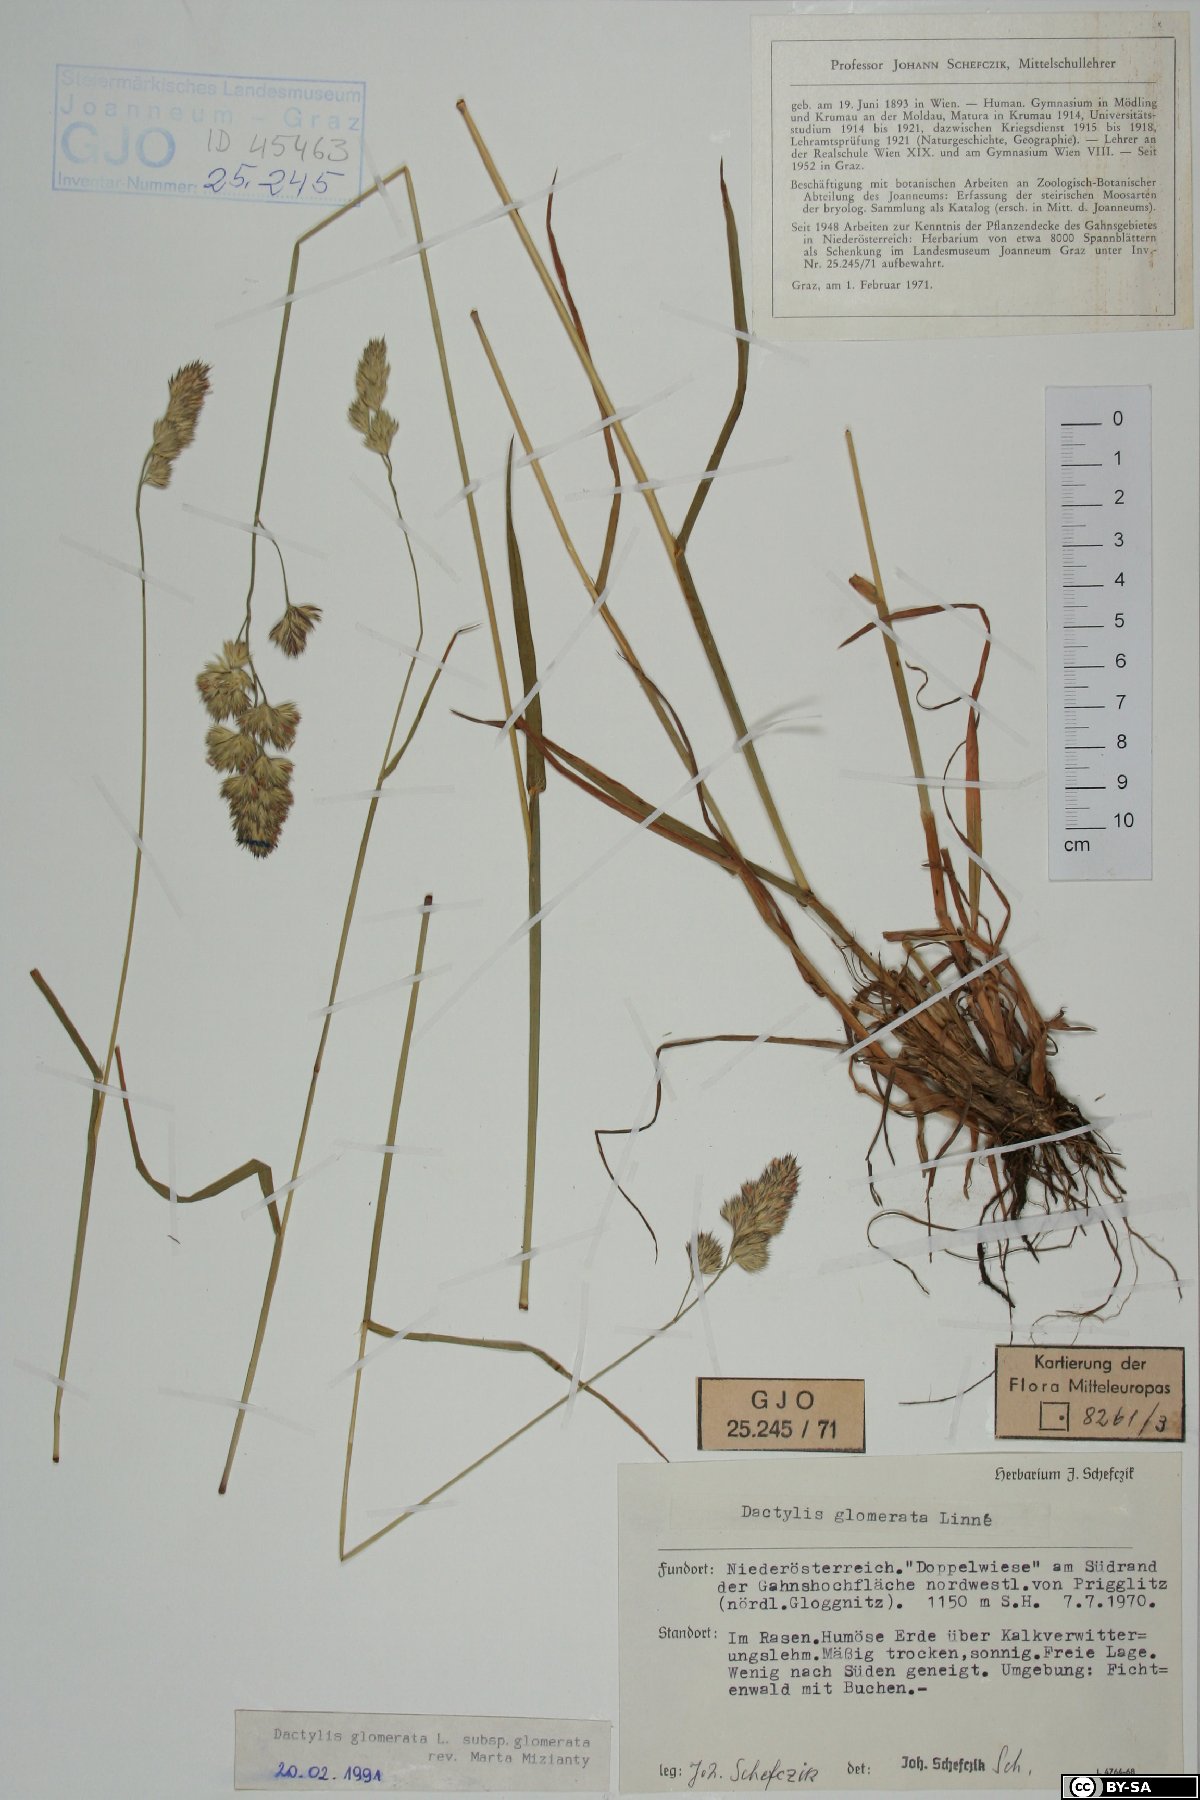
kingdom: Plantae
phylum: Tracheophyta
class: Liliopsida
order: Poales
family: Poaceae
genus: Dactylis
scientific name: Dactylis glomerata
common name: Orchardgrass
